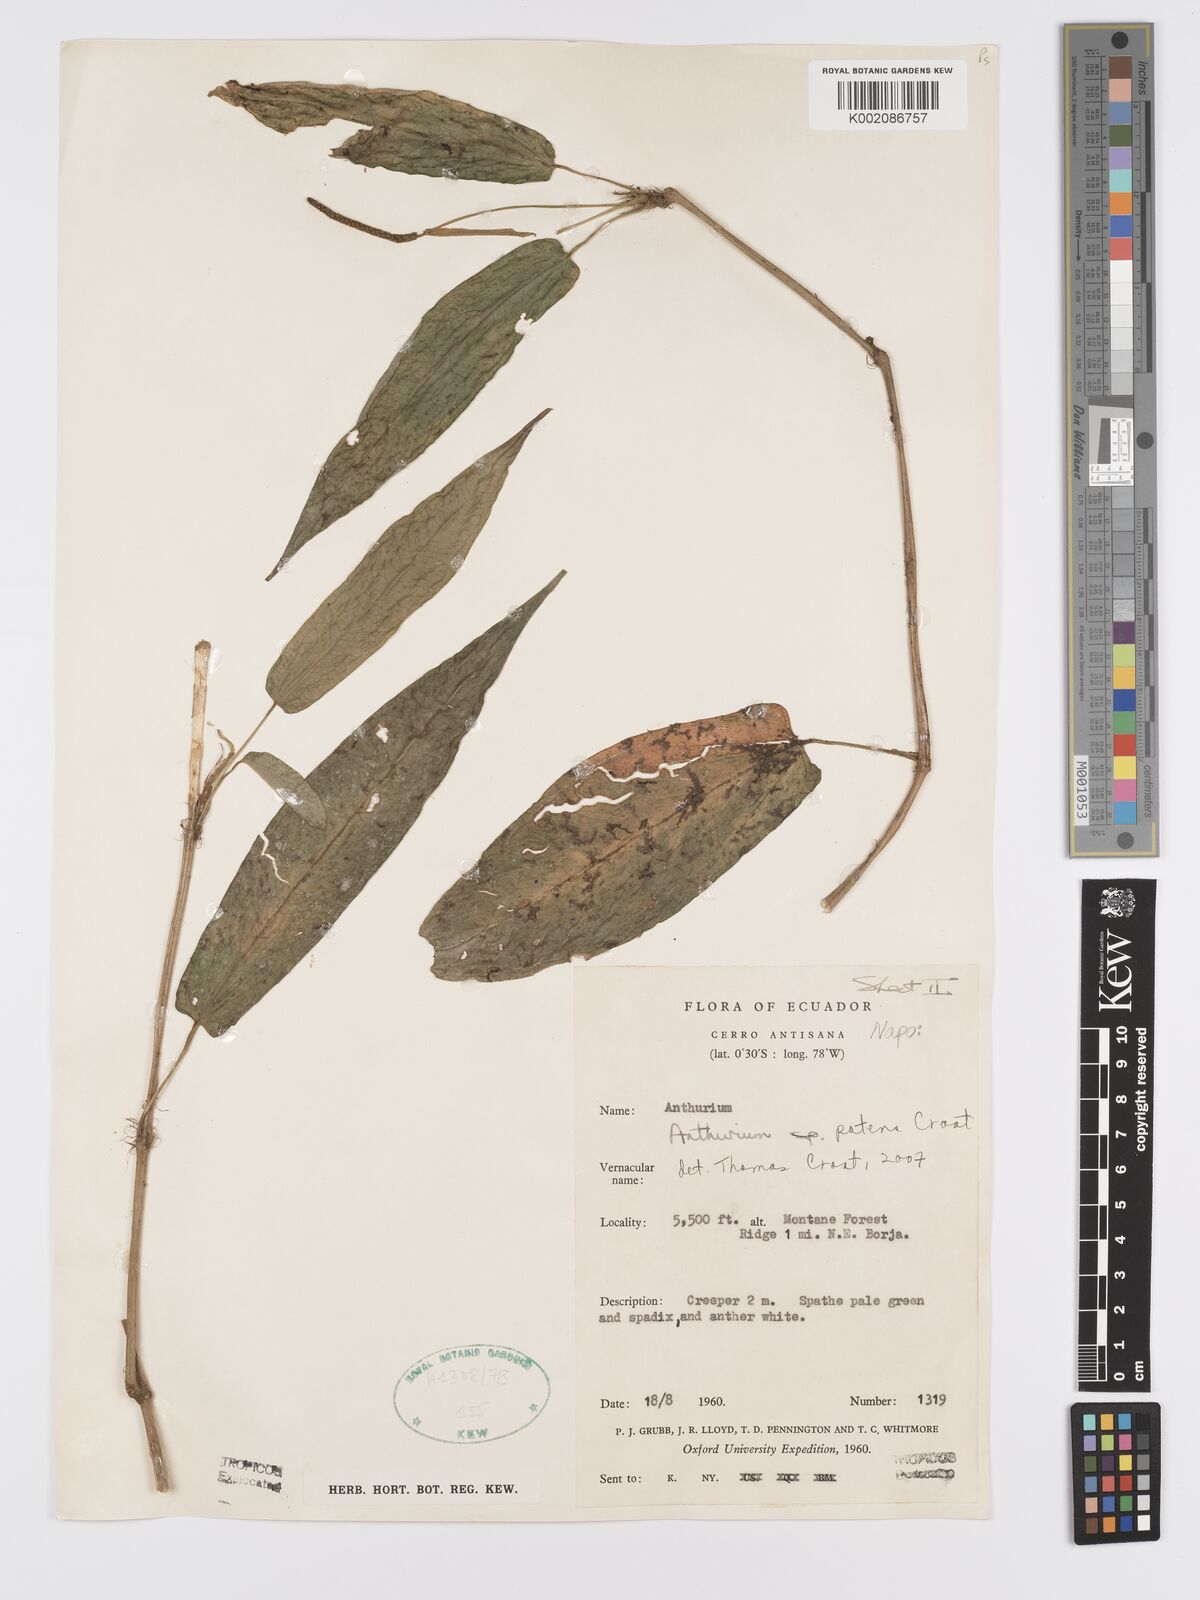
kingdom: Plantae
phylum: Tracheophyta
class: Liliopsida
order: Alismatales
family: Araceae
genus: Anthurium
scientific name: Anthurium patens
